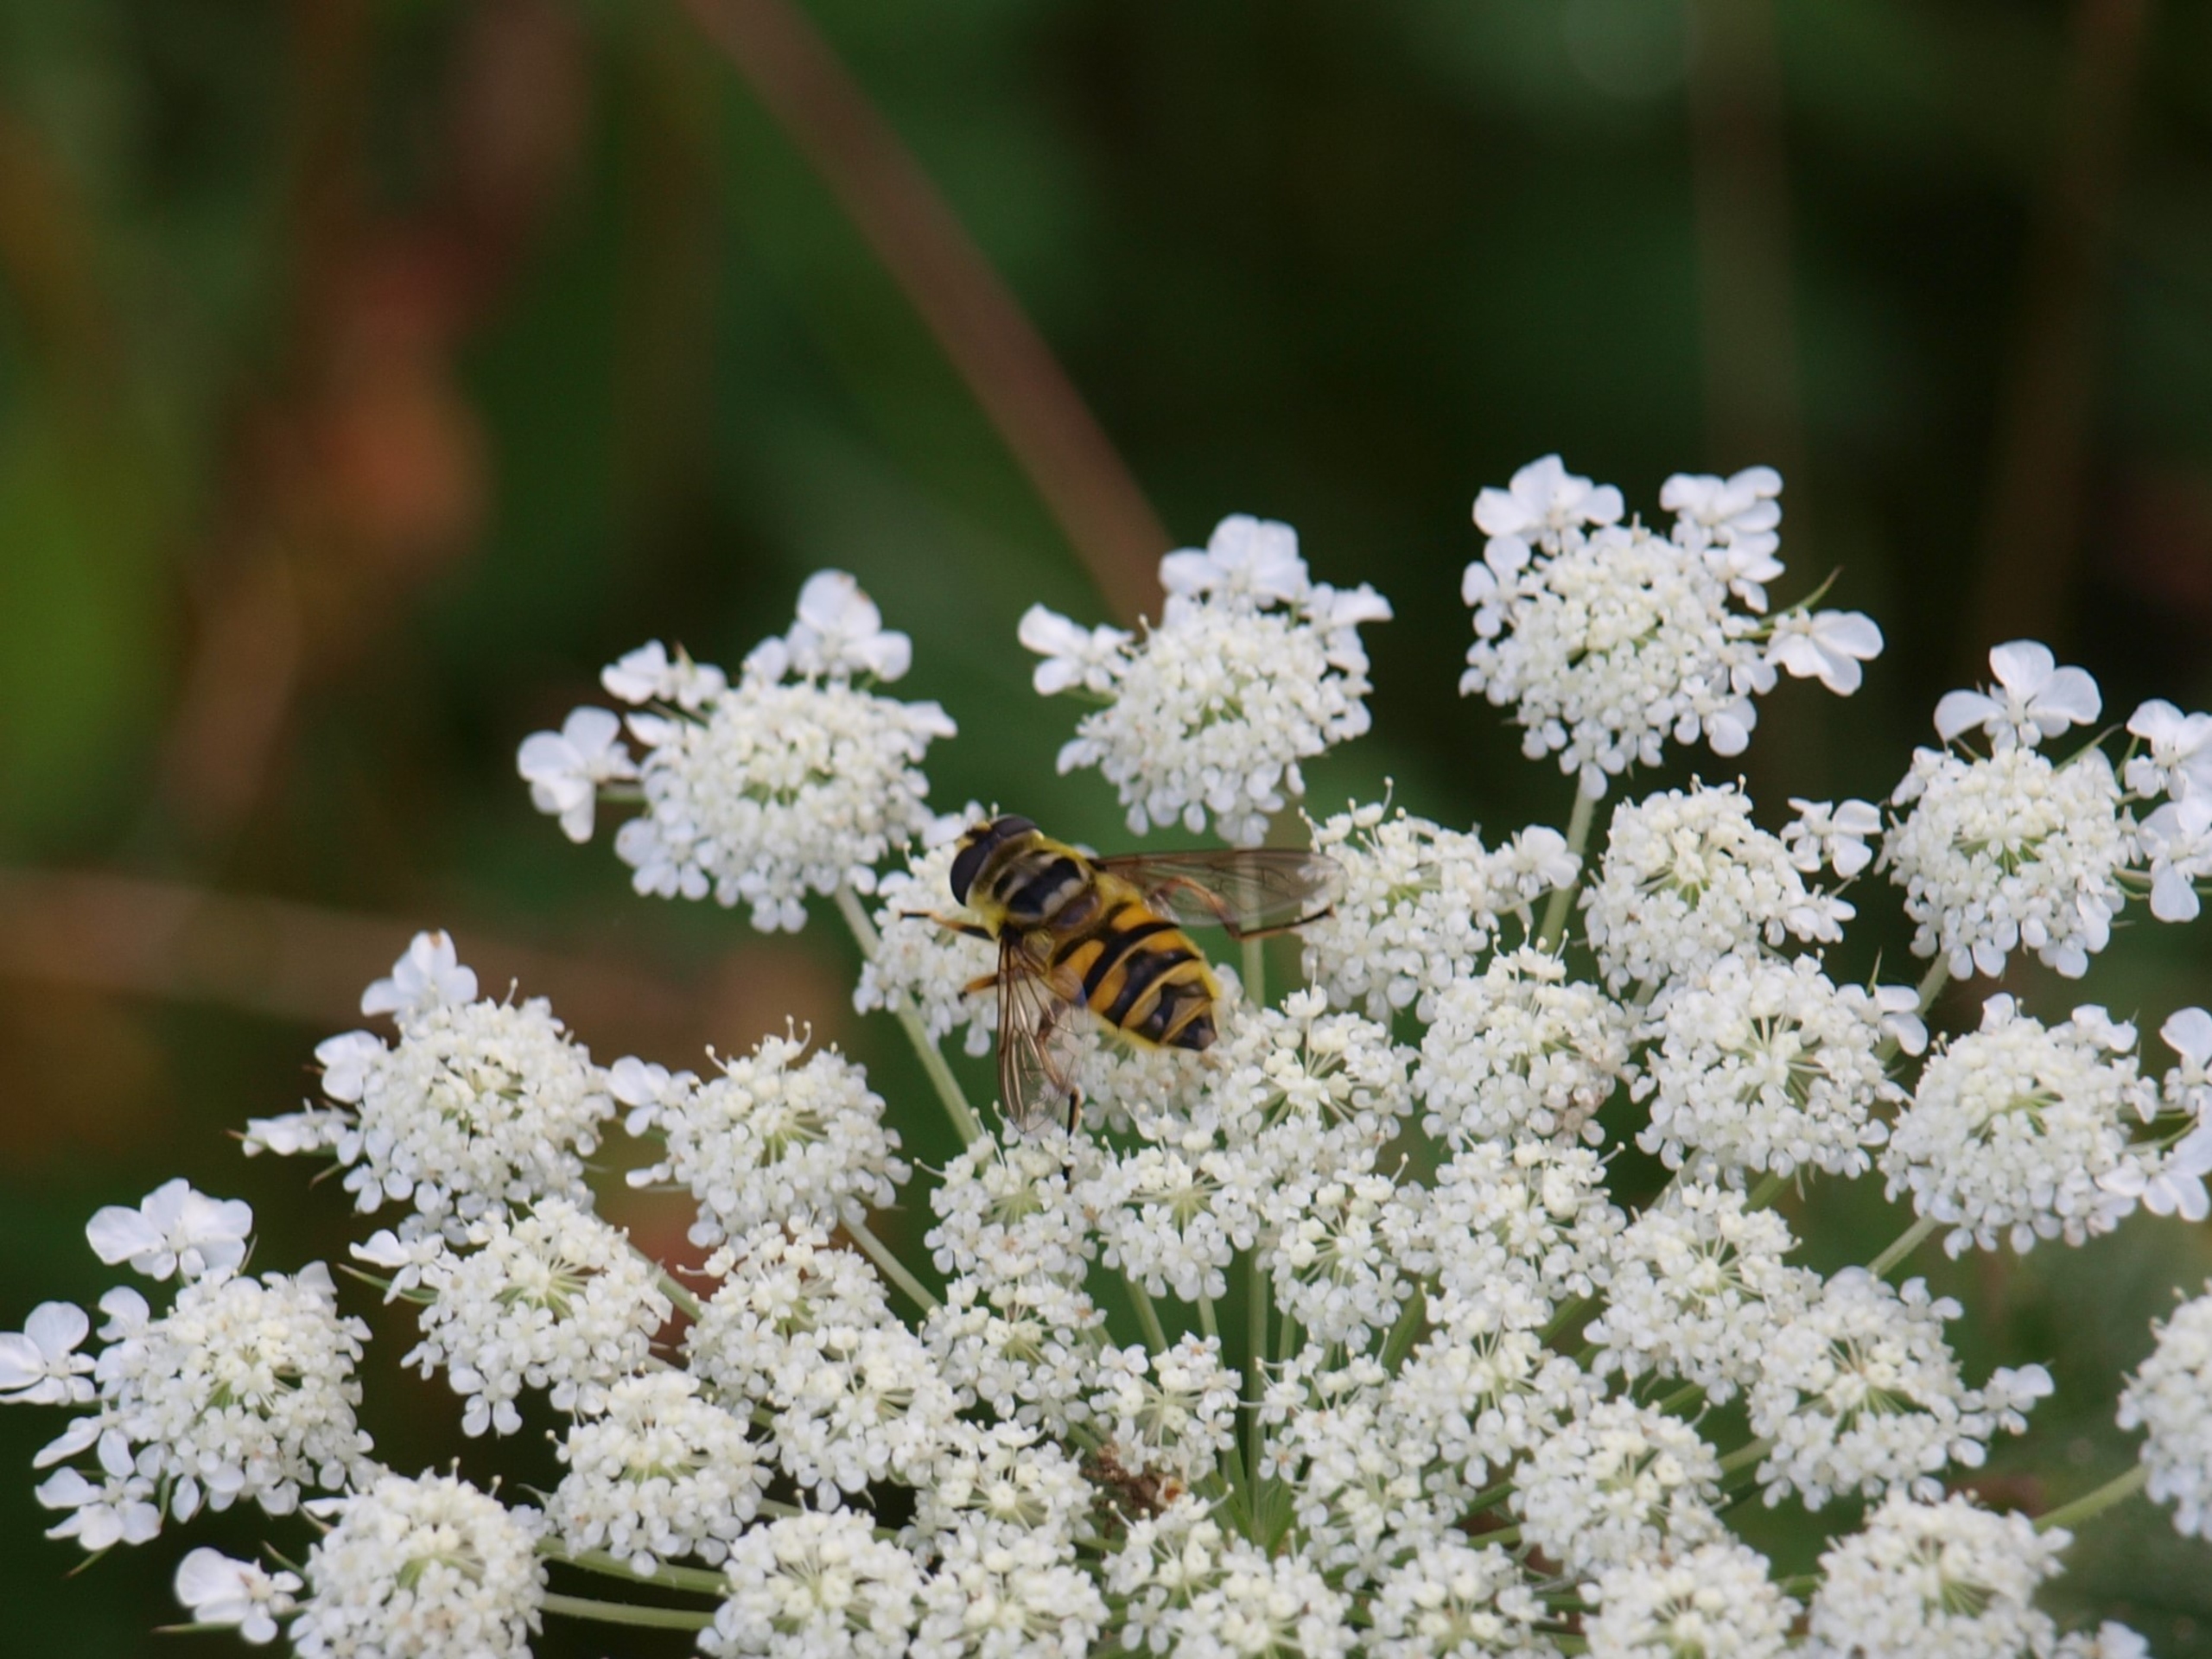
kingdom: Animalia
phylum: Arthropoda
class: Insecta
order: Diptera
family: Syrphidae
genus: Myathropa
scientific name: Myathropa florea
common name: Dødningehoved-svirreflue
